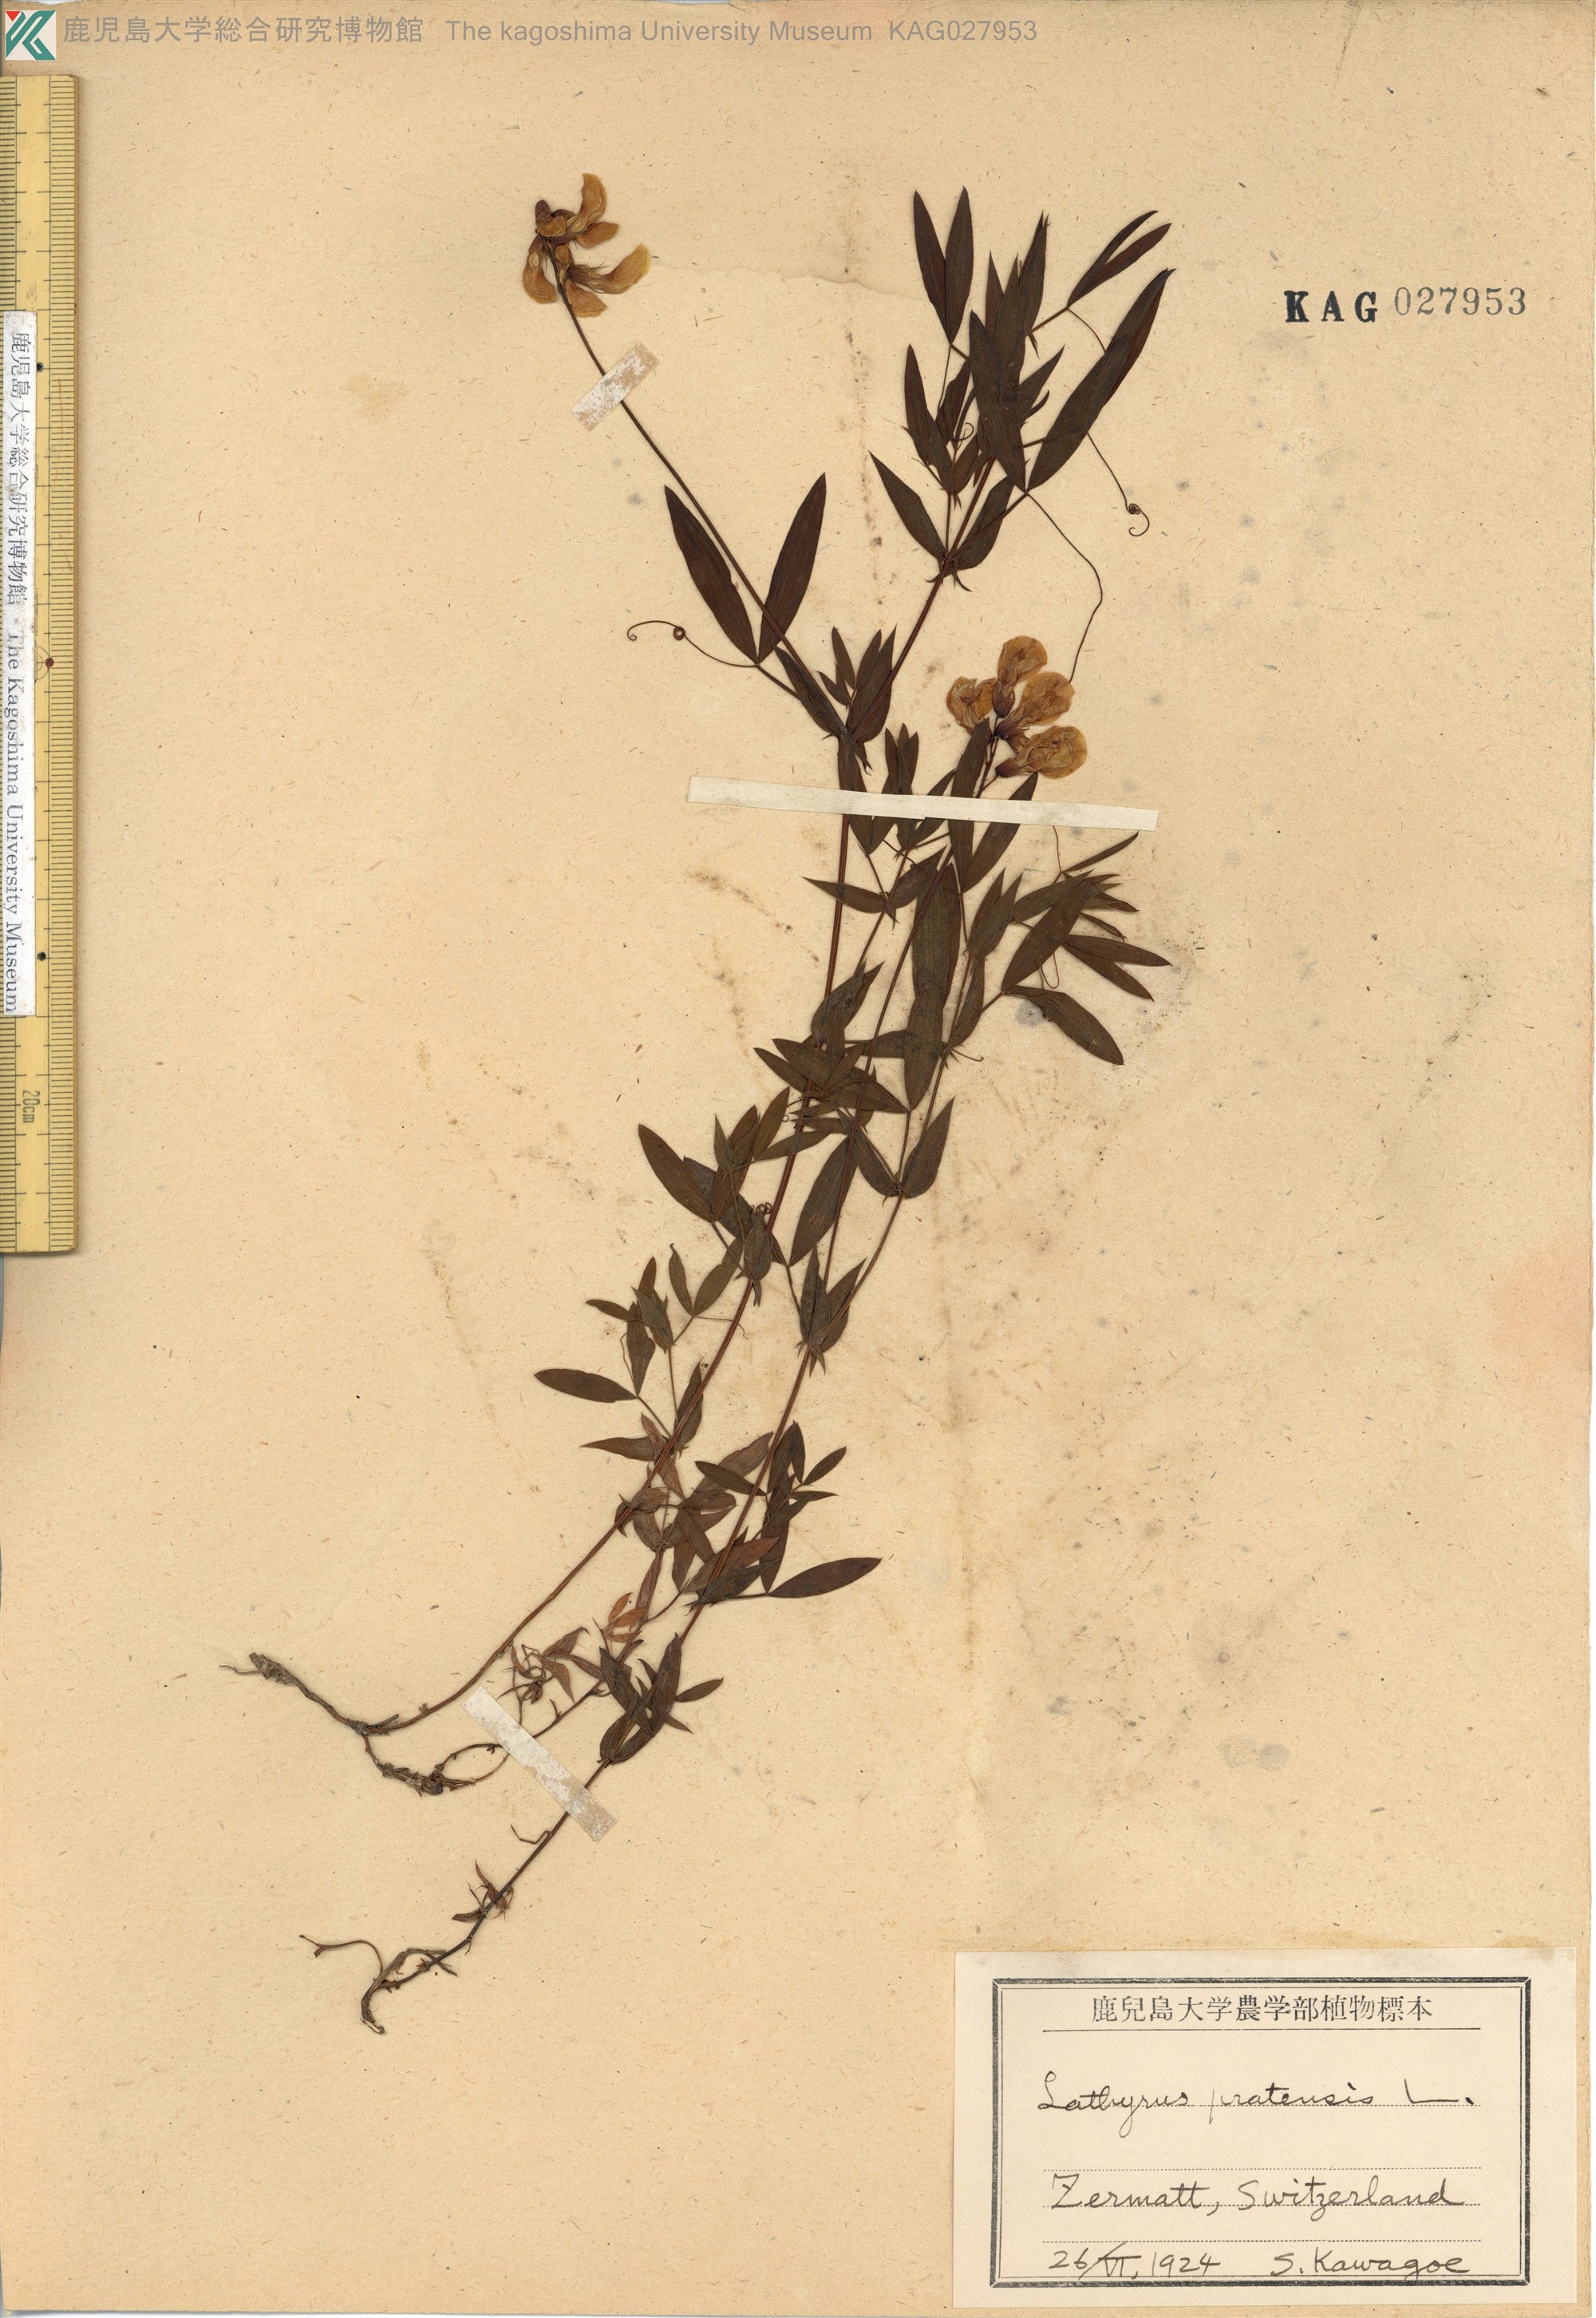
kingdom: Plantae
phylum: Tracheophyta
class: Magnoliopsida
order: Fabales
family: Fabaceae
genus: Lathyrus
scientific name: Lathyrus pratensis
